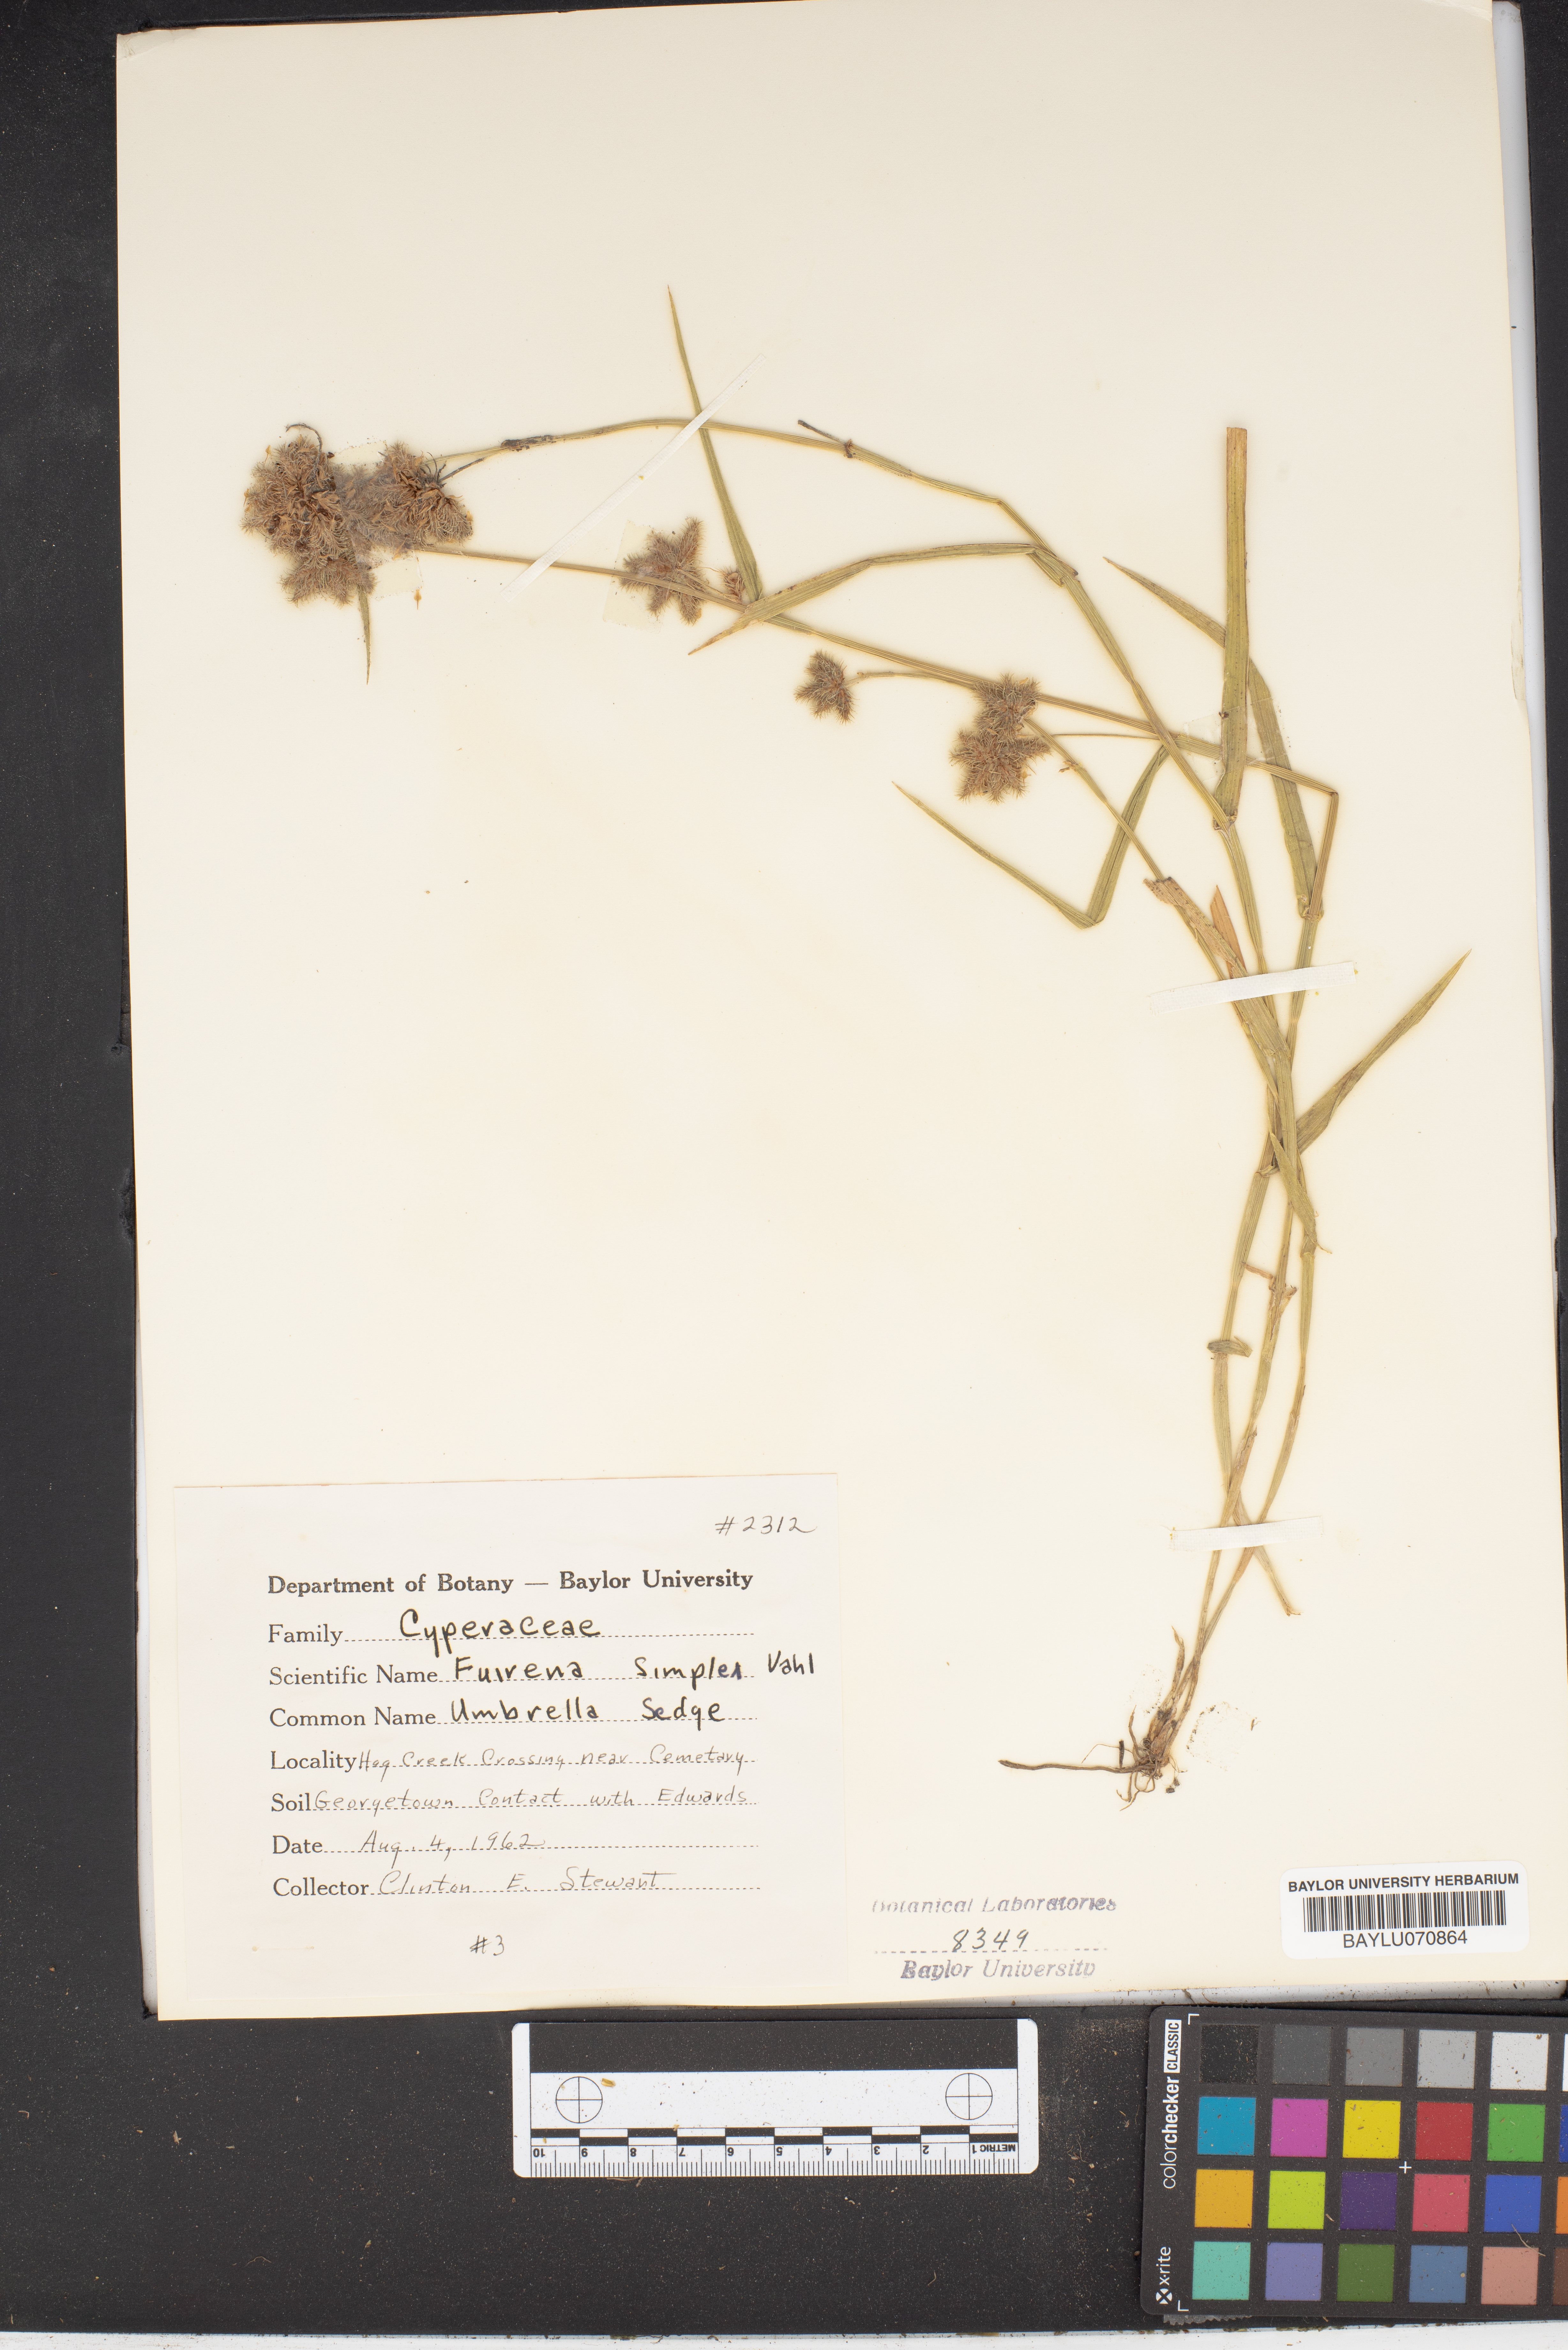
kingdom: Plantae
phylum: Tracheophyta
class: Liliopsida
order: Poales
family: Cyperaceae
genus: Fuirena
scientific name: Fuirena simplex
